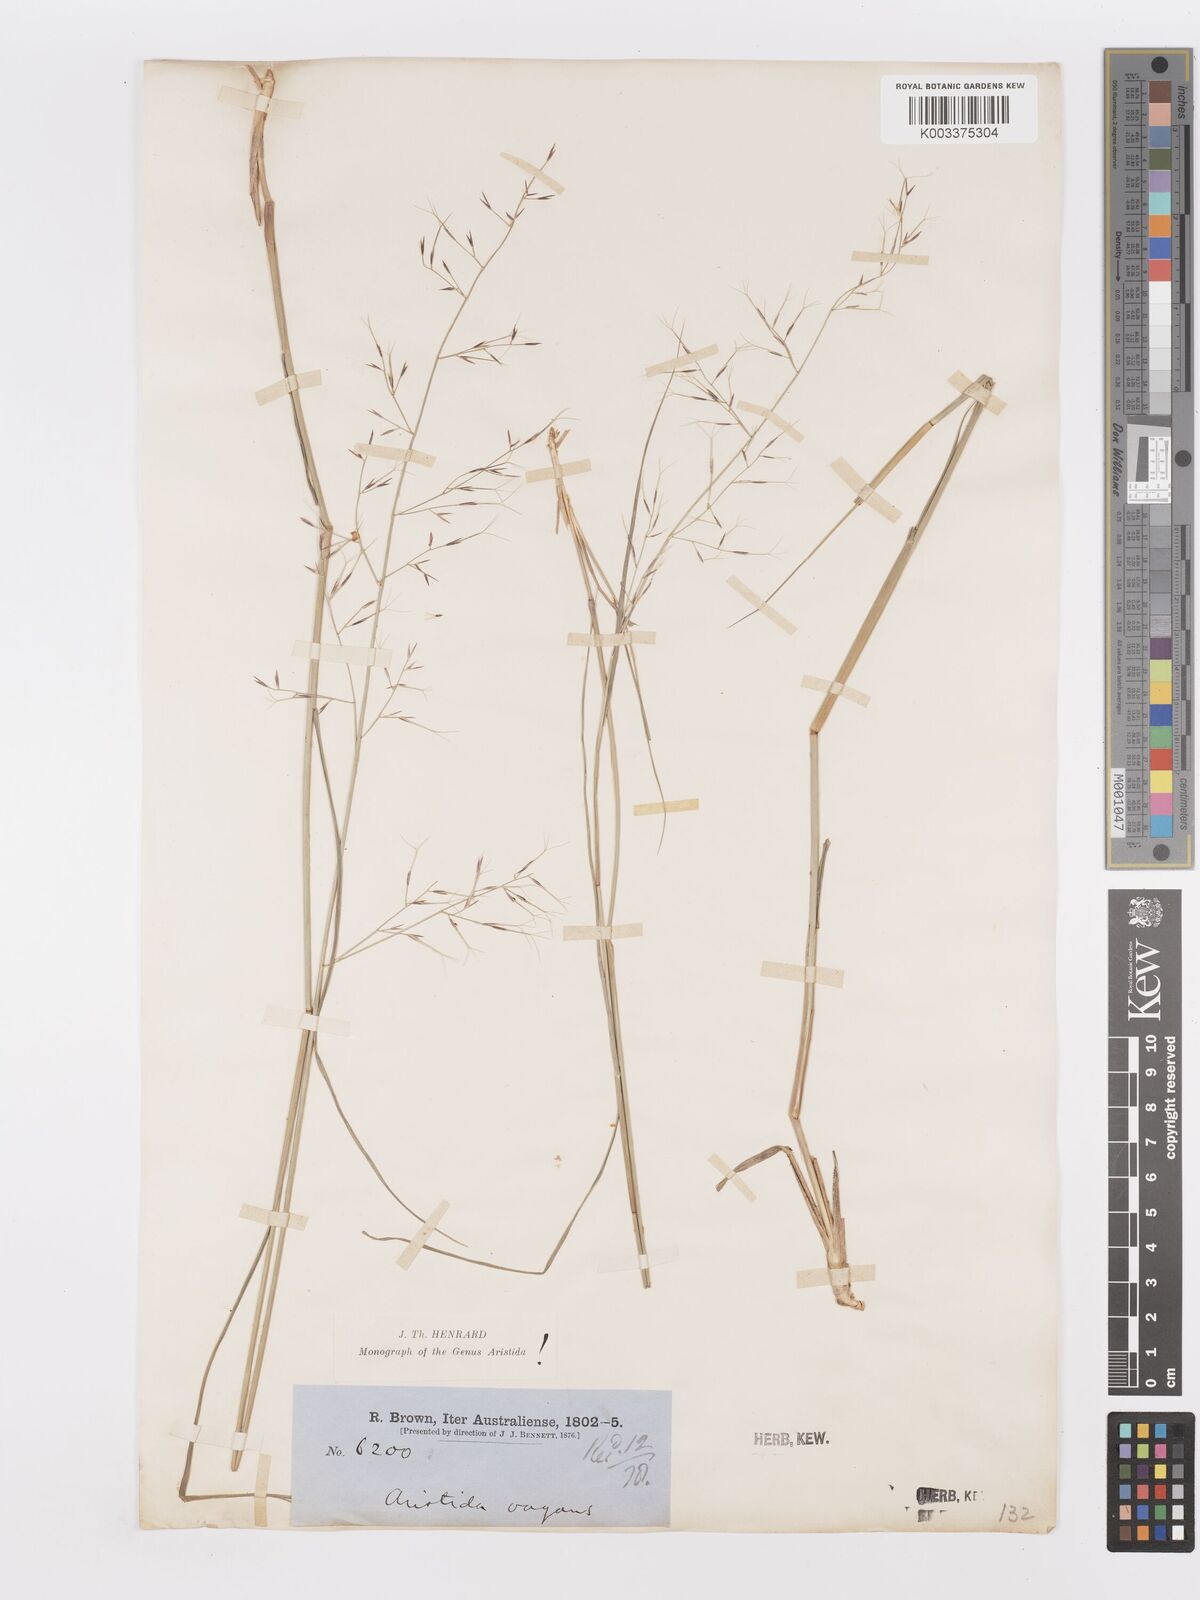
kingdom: Plantae
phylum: Tracheophyta
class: Liliopsida
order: Poales
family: Poaceae
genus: Aristida
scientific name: Aristida vagans
